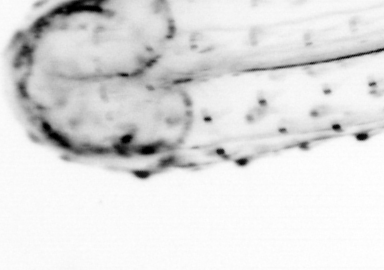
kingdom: Animalia
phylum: Chaetognatha
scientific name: Chaetognatha
